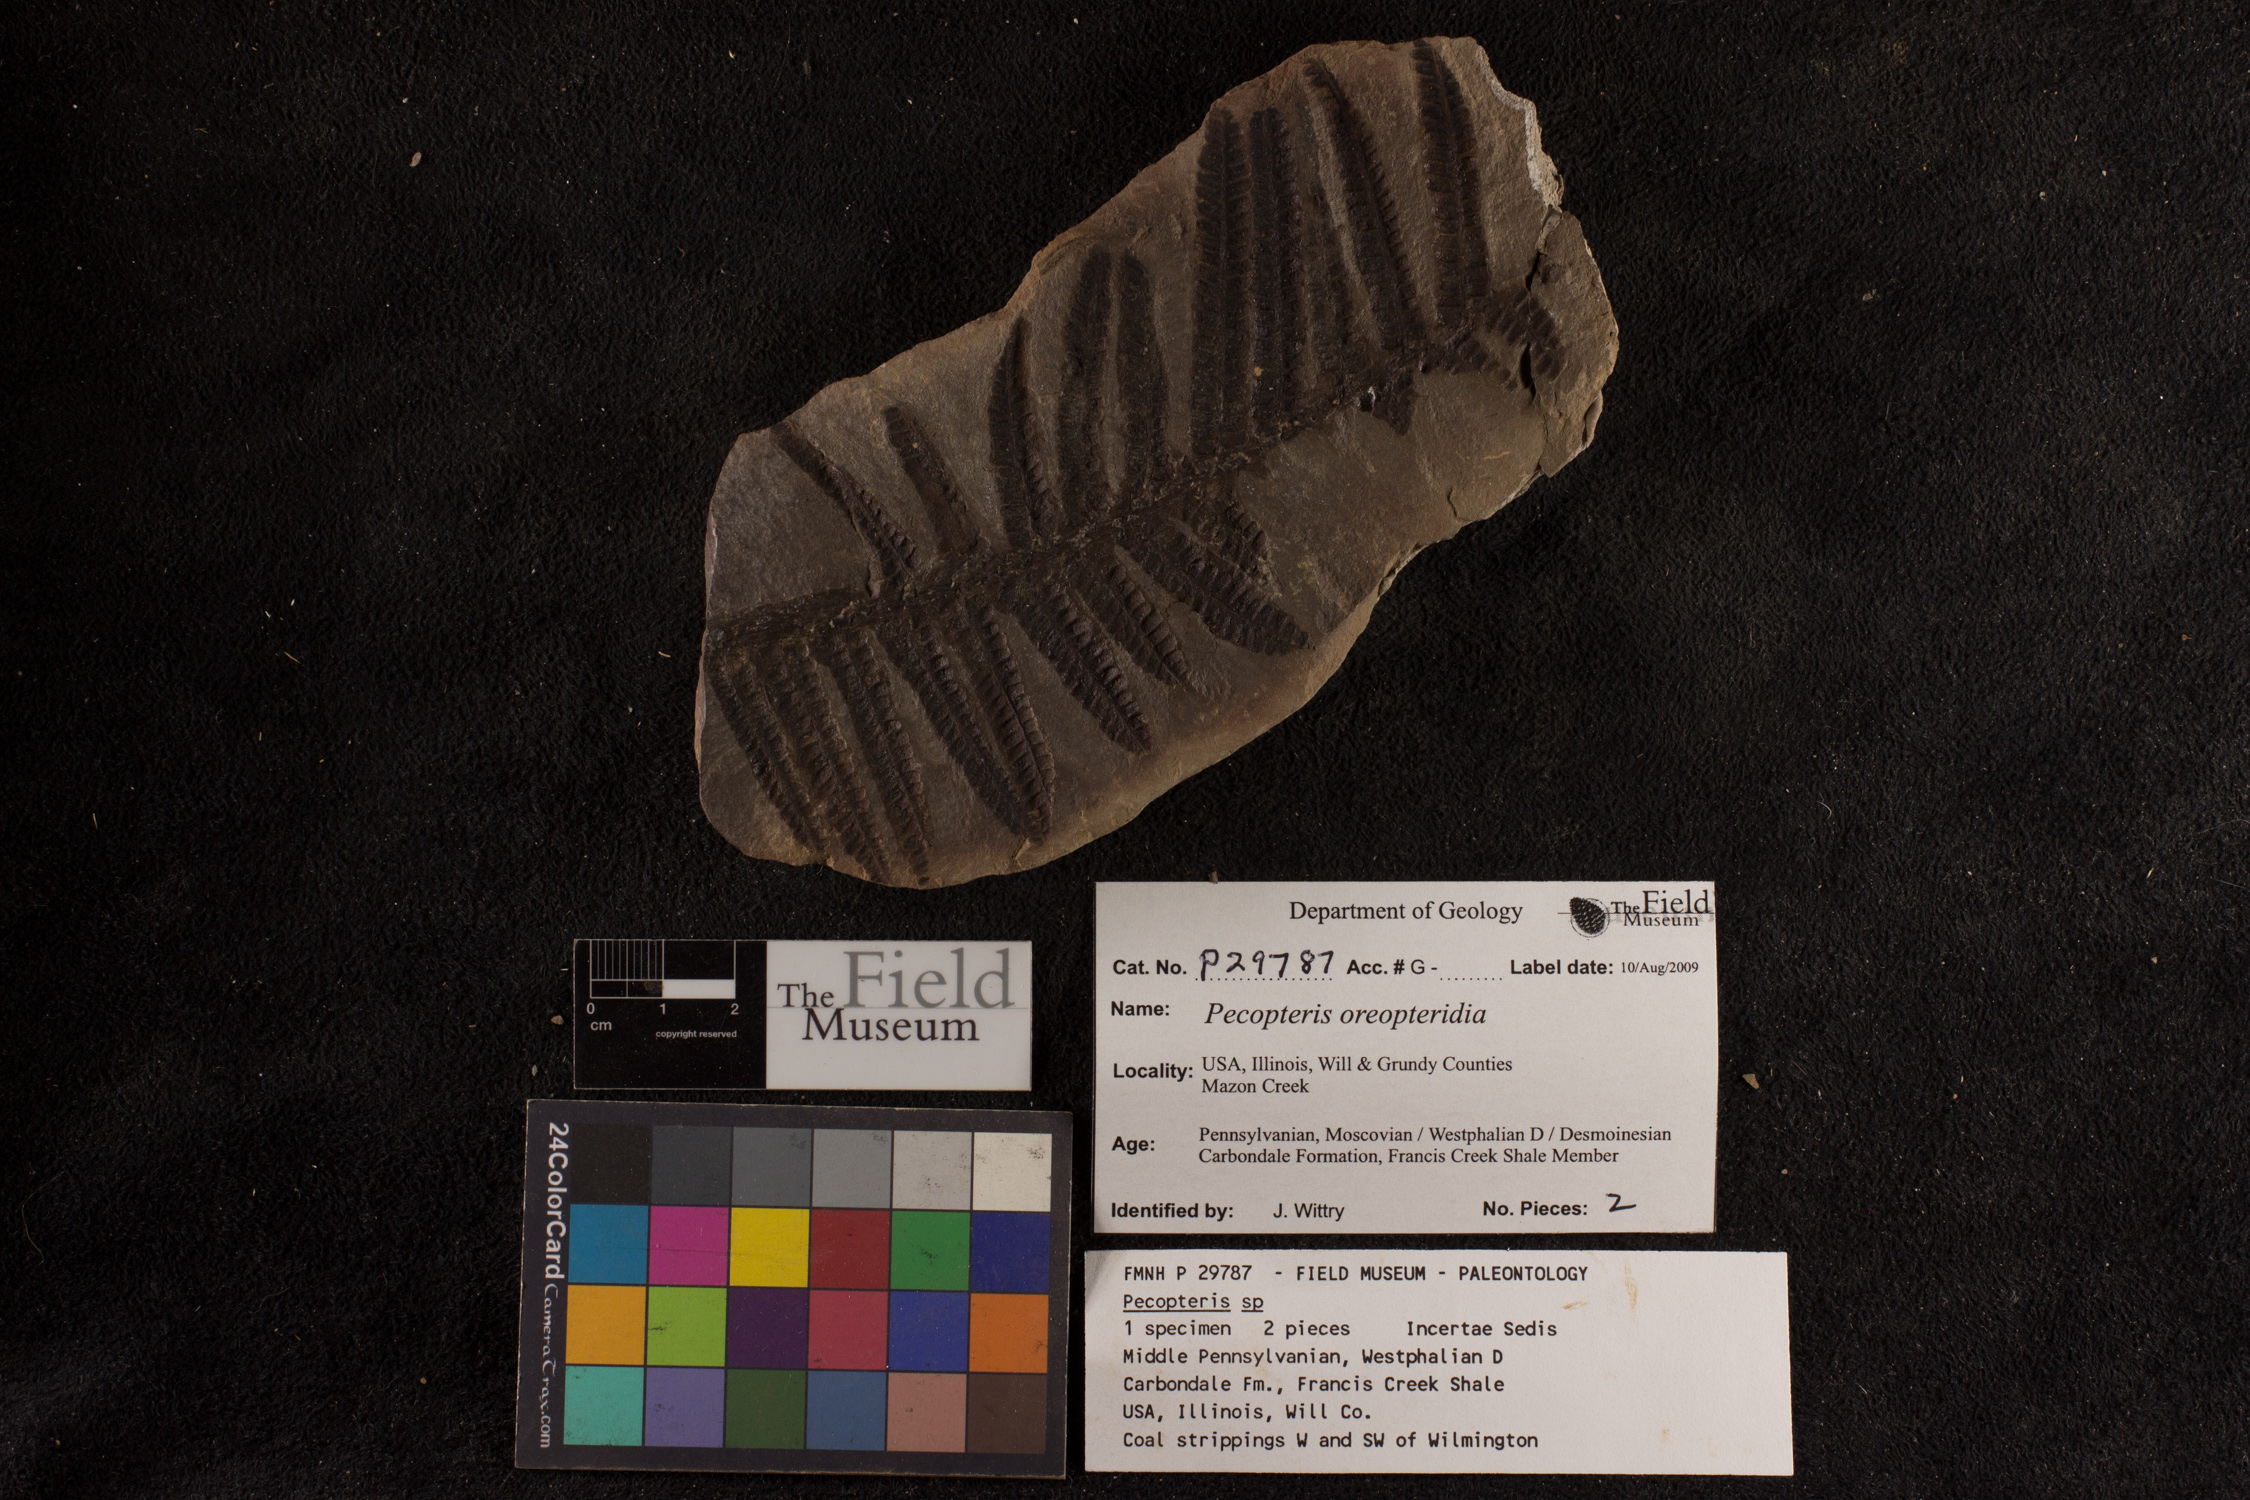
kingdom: Plantae
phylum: Tracheophyta
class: Polypodiopsida
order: Marattiales
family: Asterothecaceae
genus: Pecopteris
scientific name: Pecopteris
